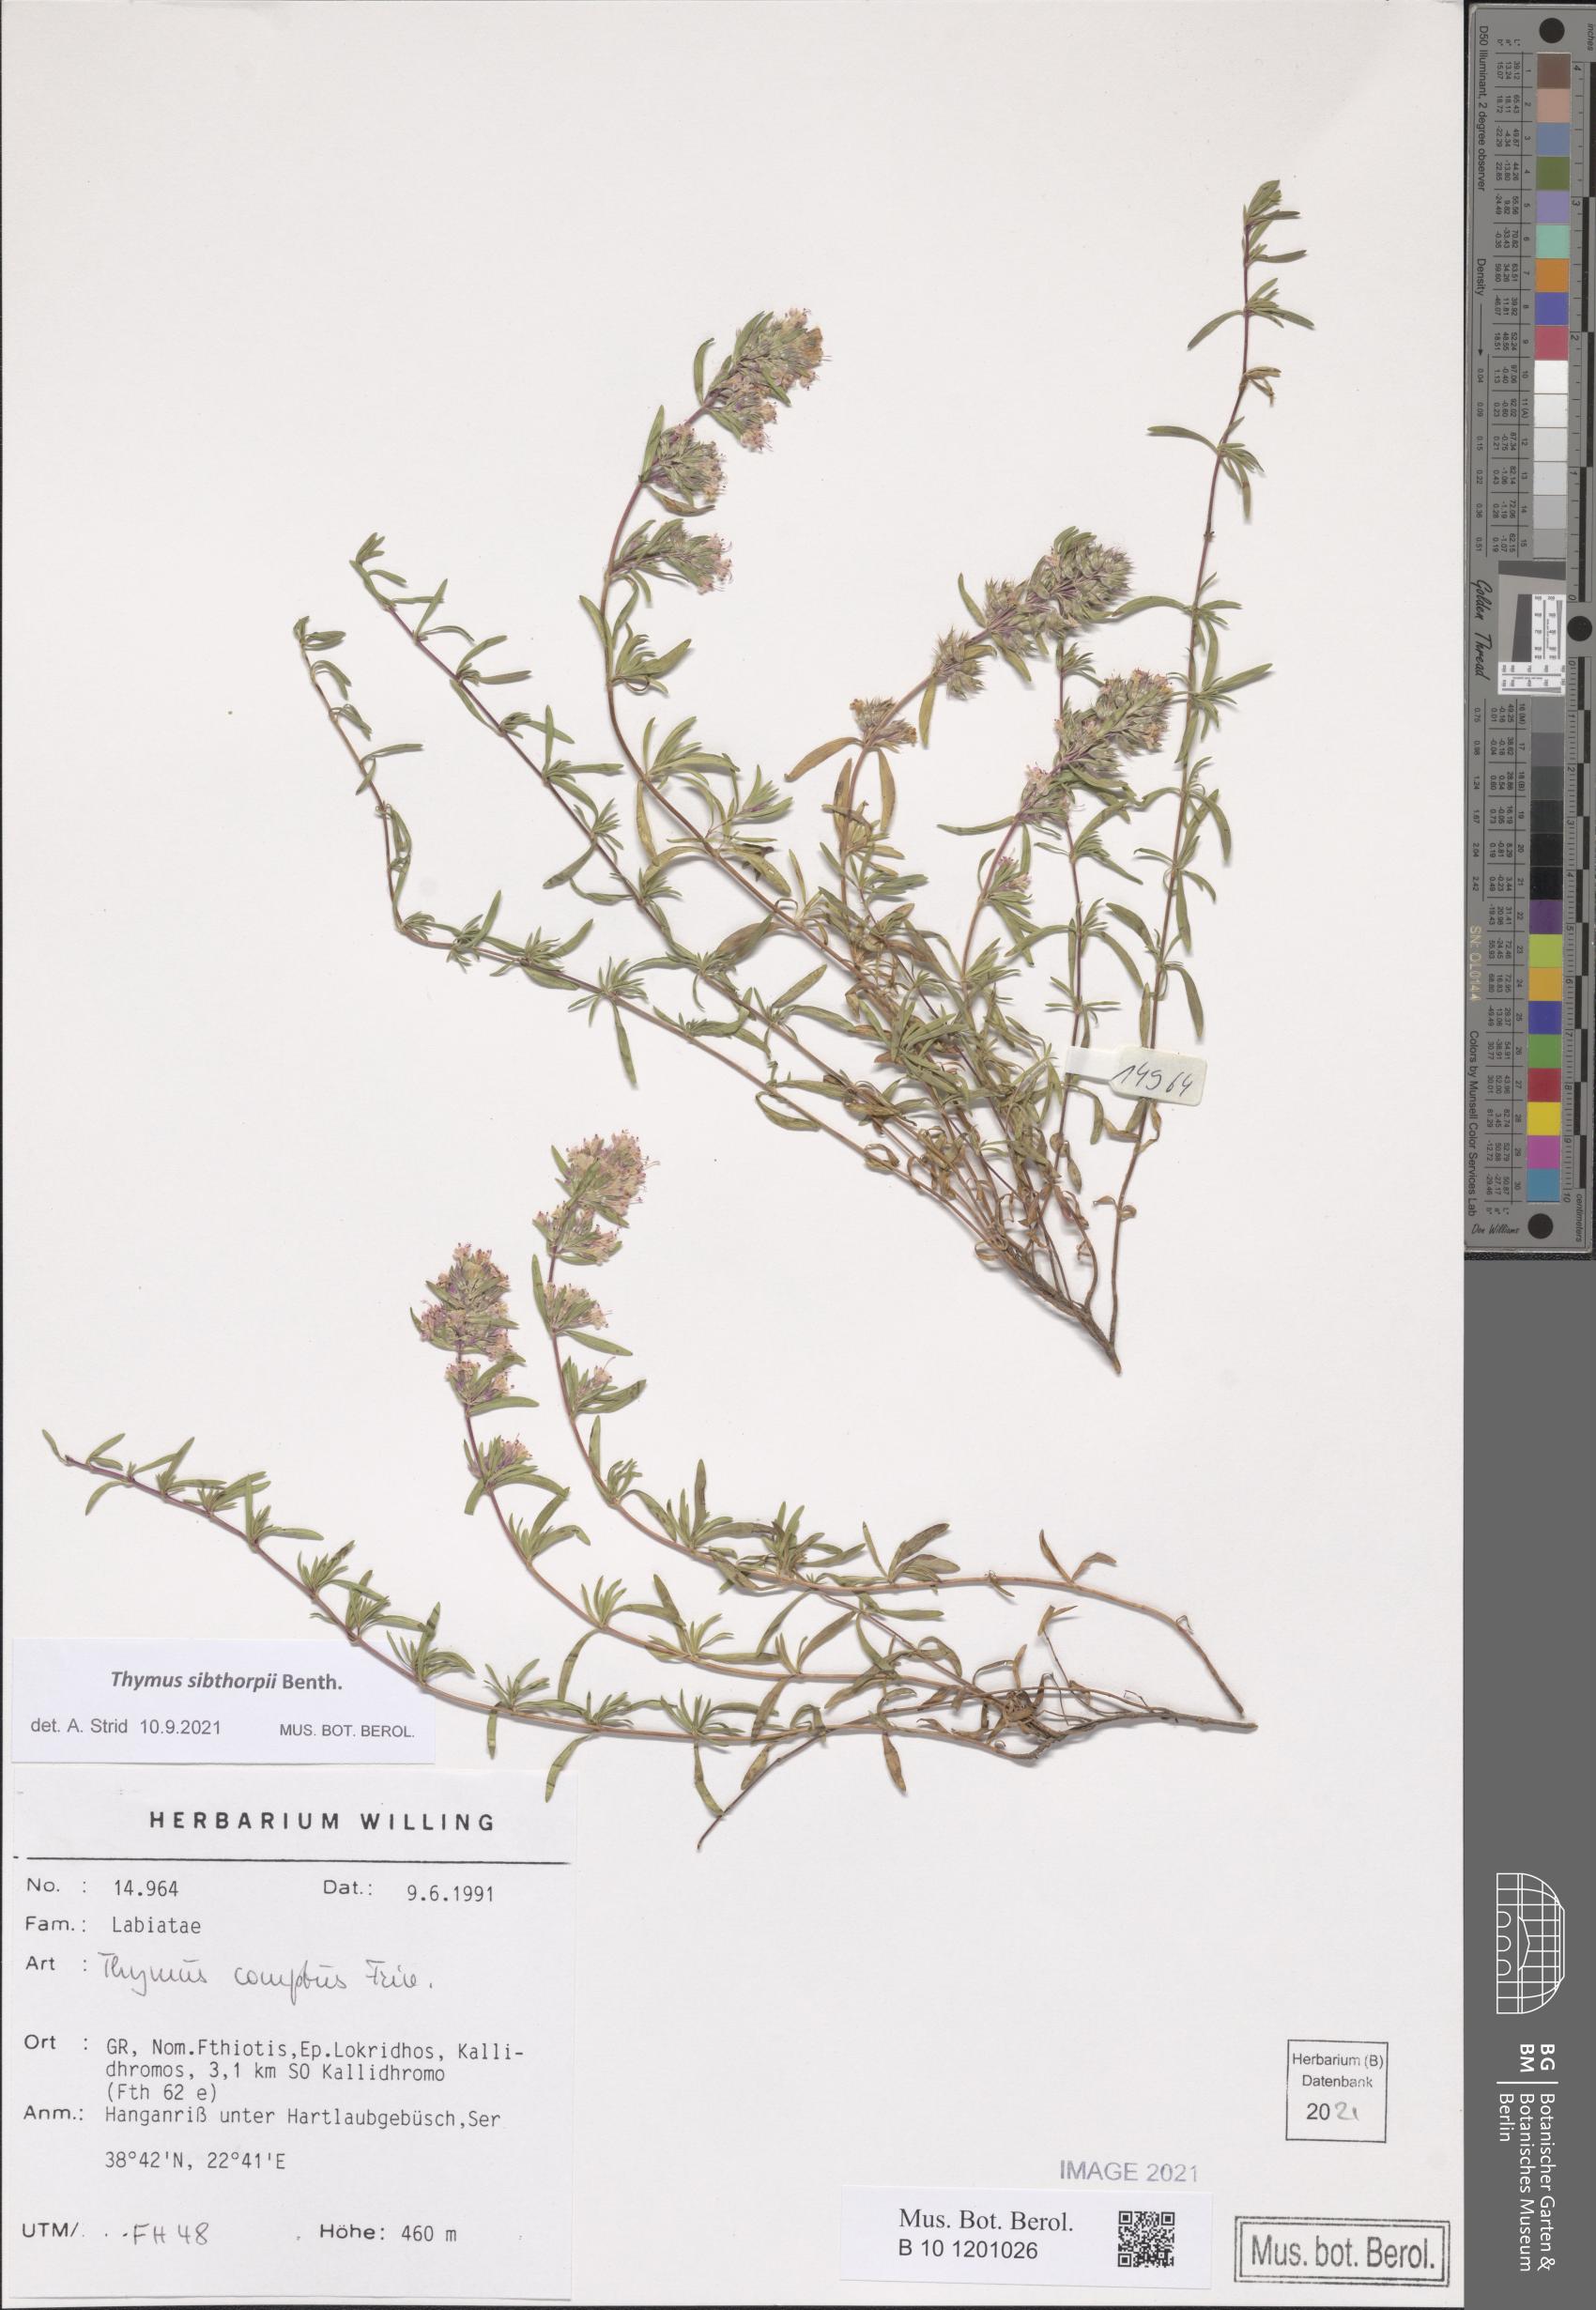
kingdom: Plantae
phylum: Tracheophyta
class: Magnoliopsida
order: Lamiales
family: Lamiaceae
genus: Thymus
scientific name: Thymus sibthorpii
